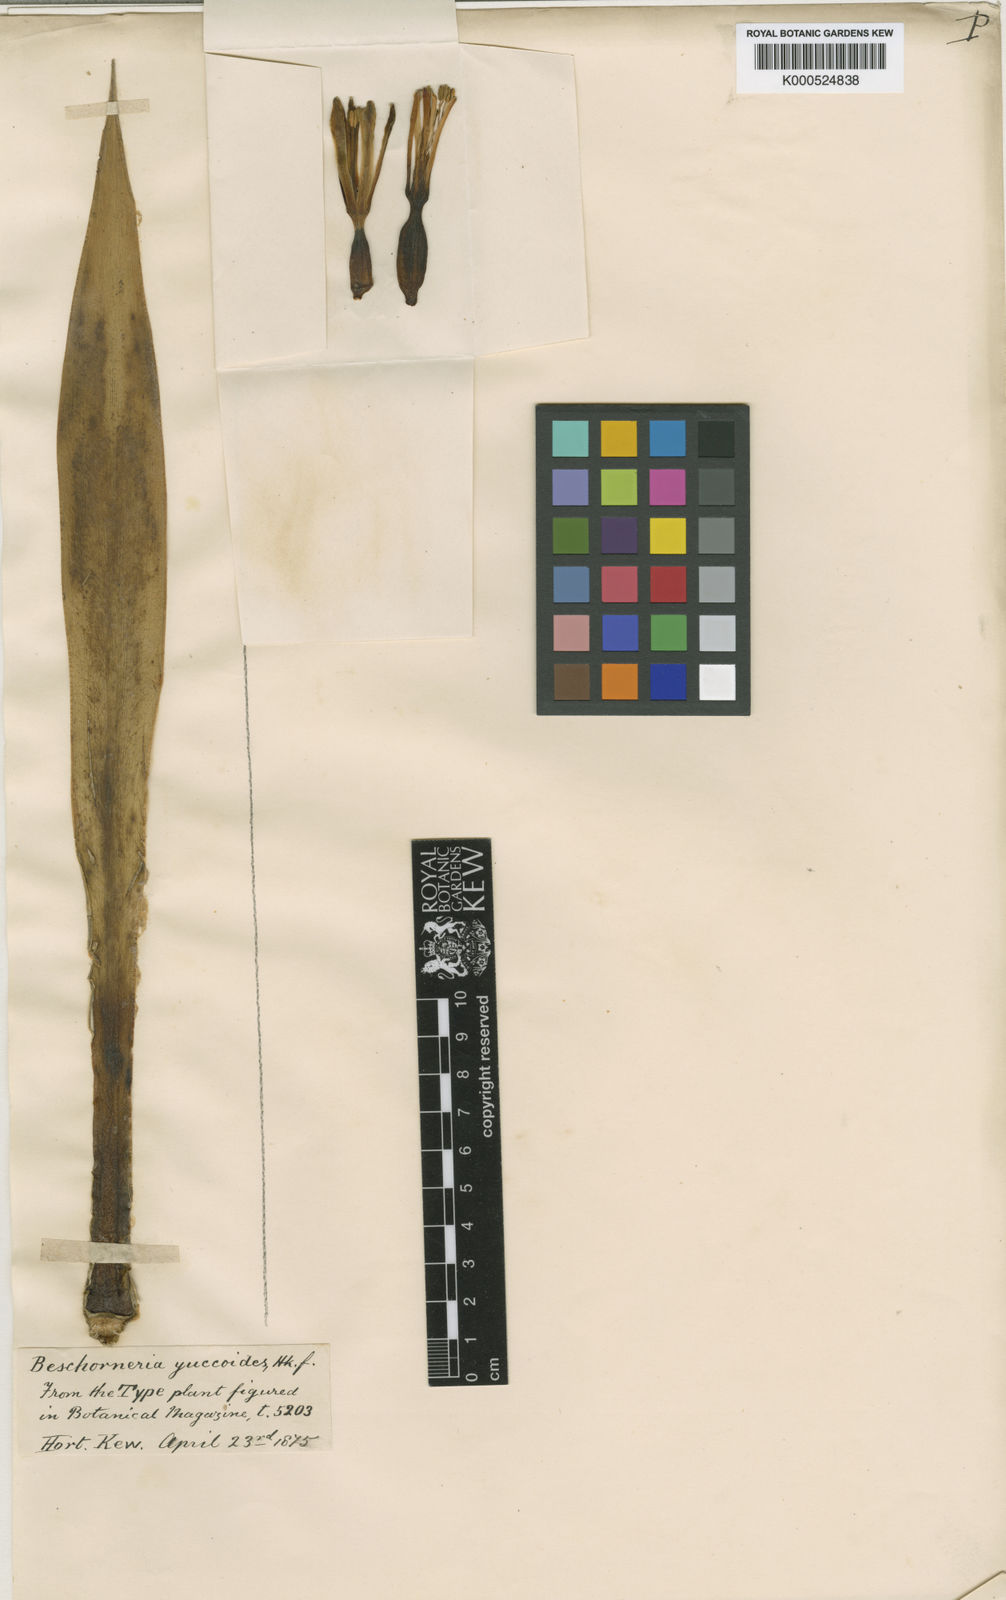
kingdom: Plantae
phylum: Tracheophyta
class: Liliopsida
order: Asparagales
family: Asparagaceae
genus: Beschorneria
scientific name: Beschorneria yuccoides
